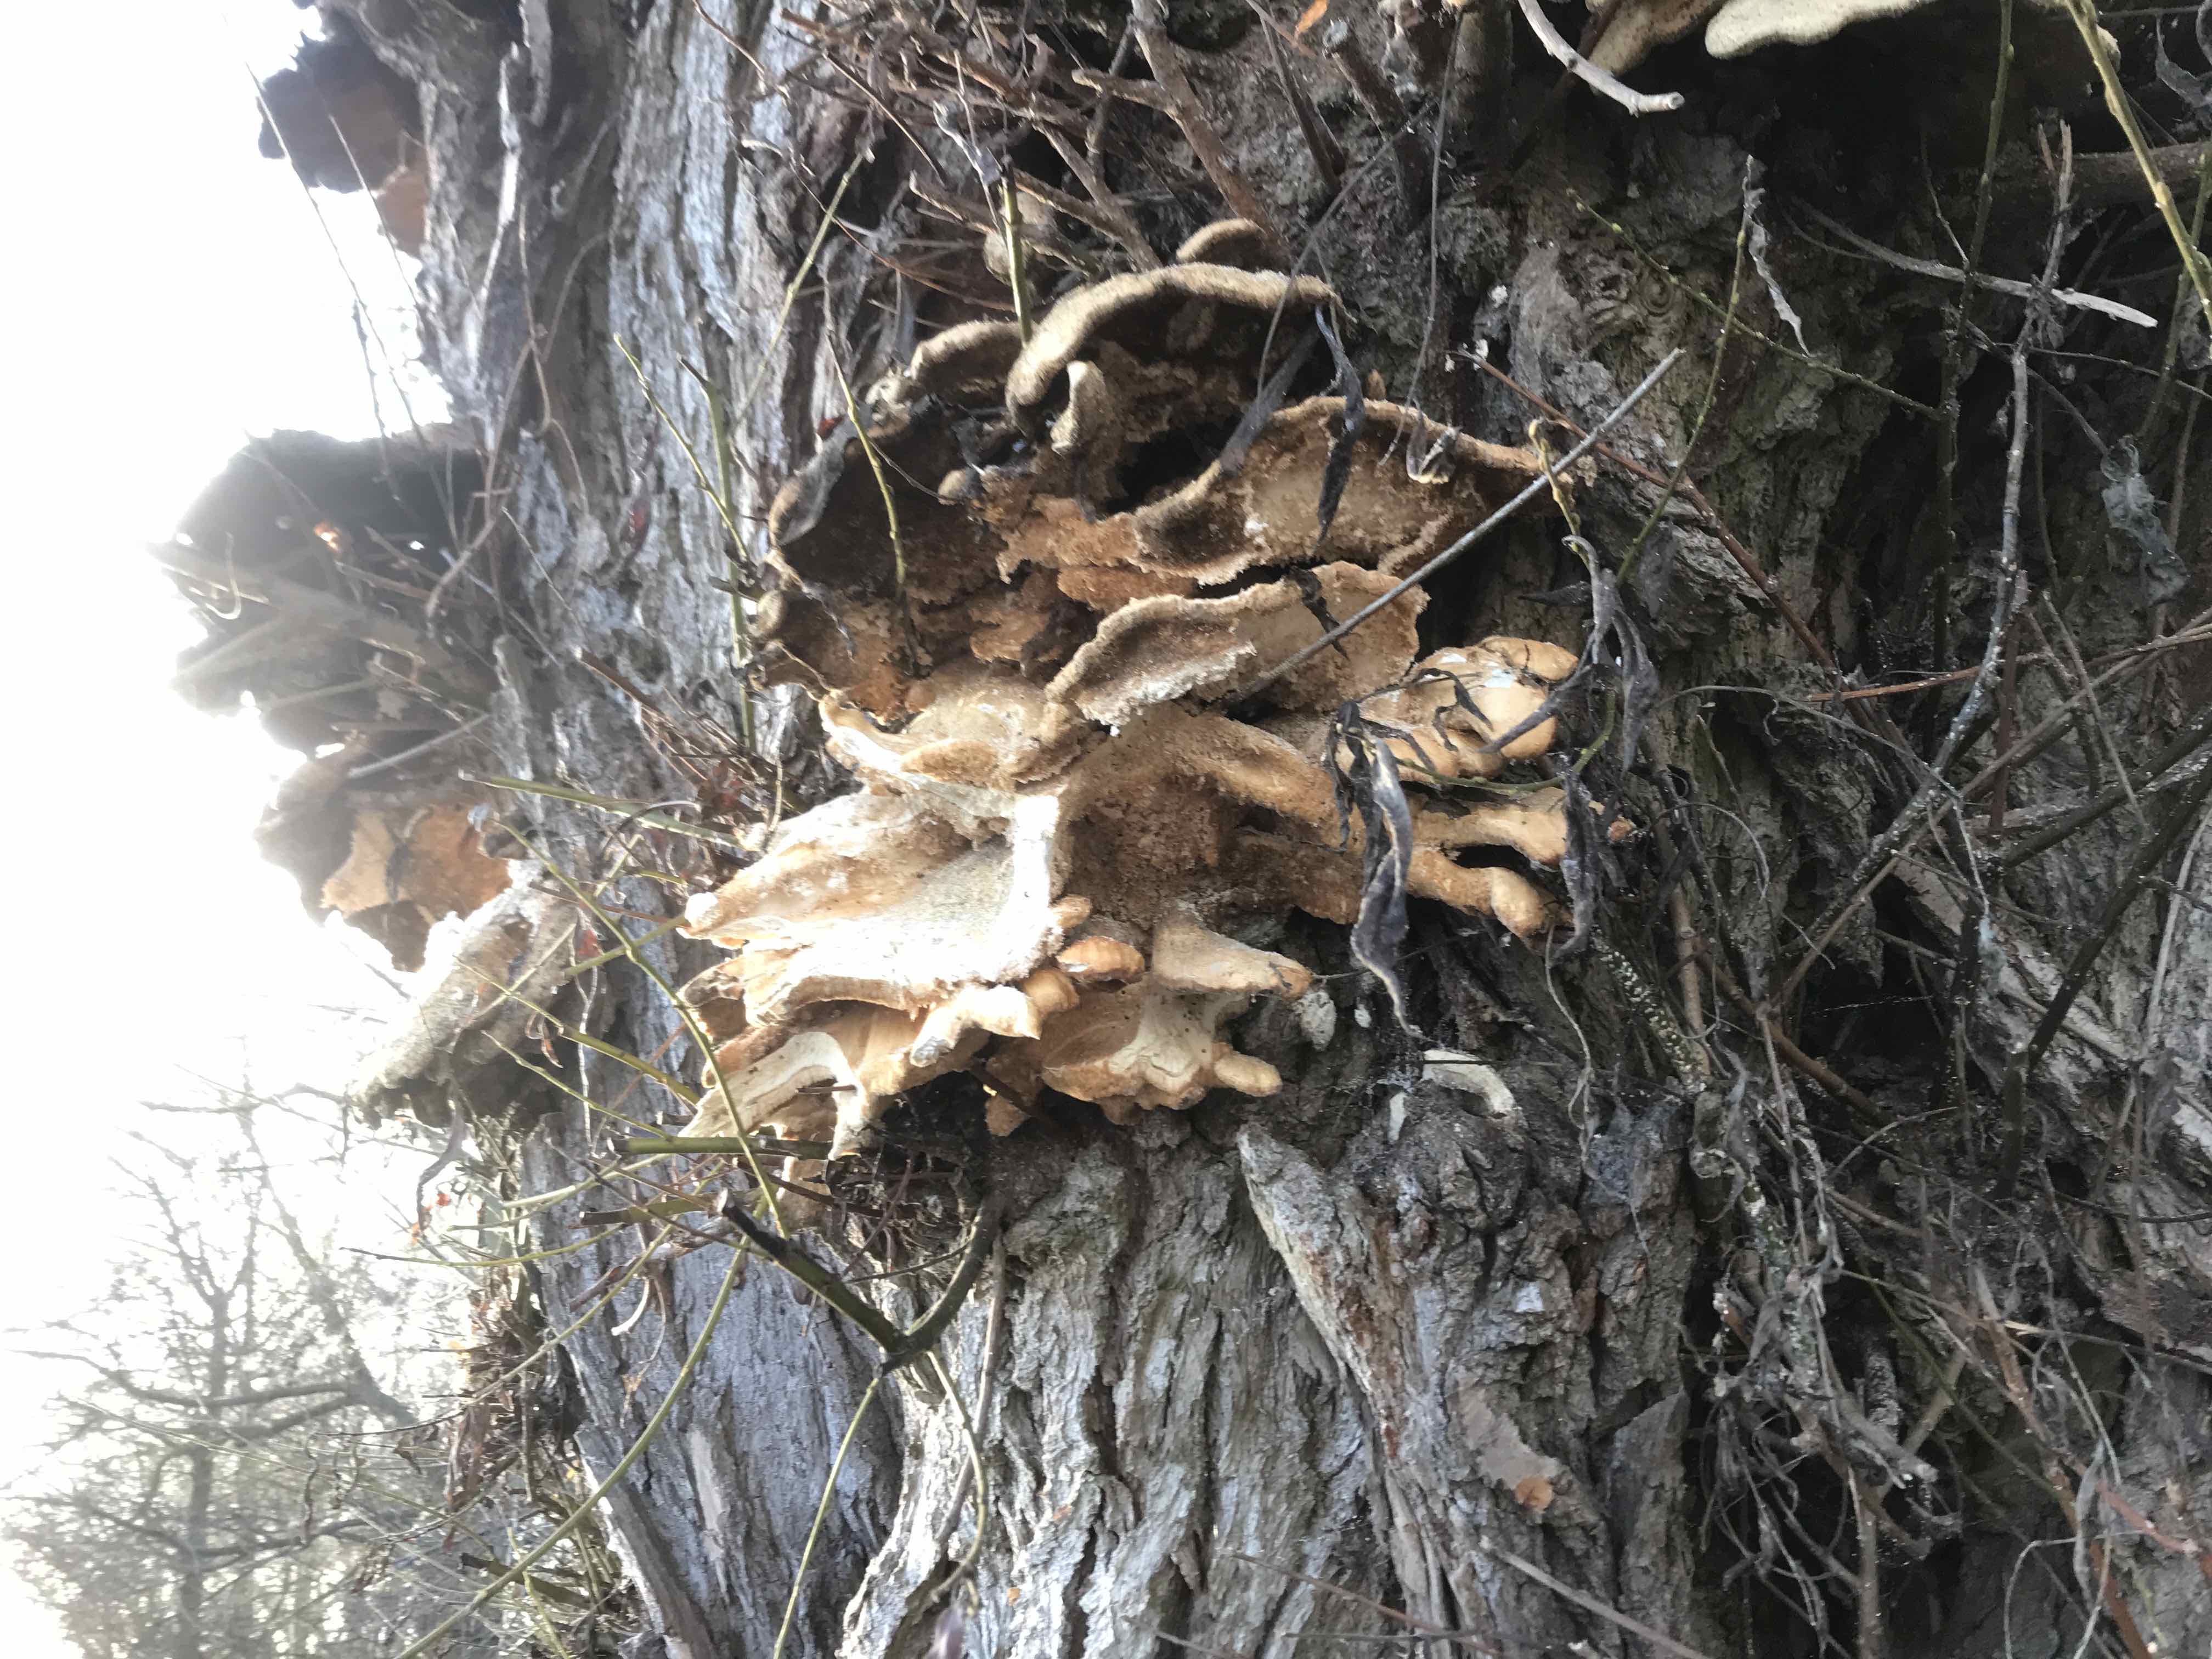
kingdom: Fungi
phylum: Basidiomycota
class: Agaricomycetes
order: Polyporales
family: Laetiporaceae
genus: Laetiporus
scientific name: Laetiporus sulphureus
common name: svovlporesvamp
